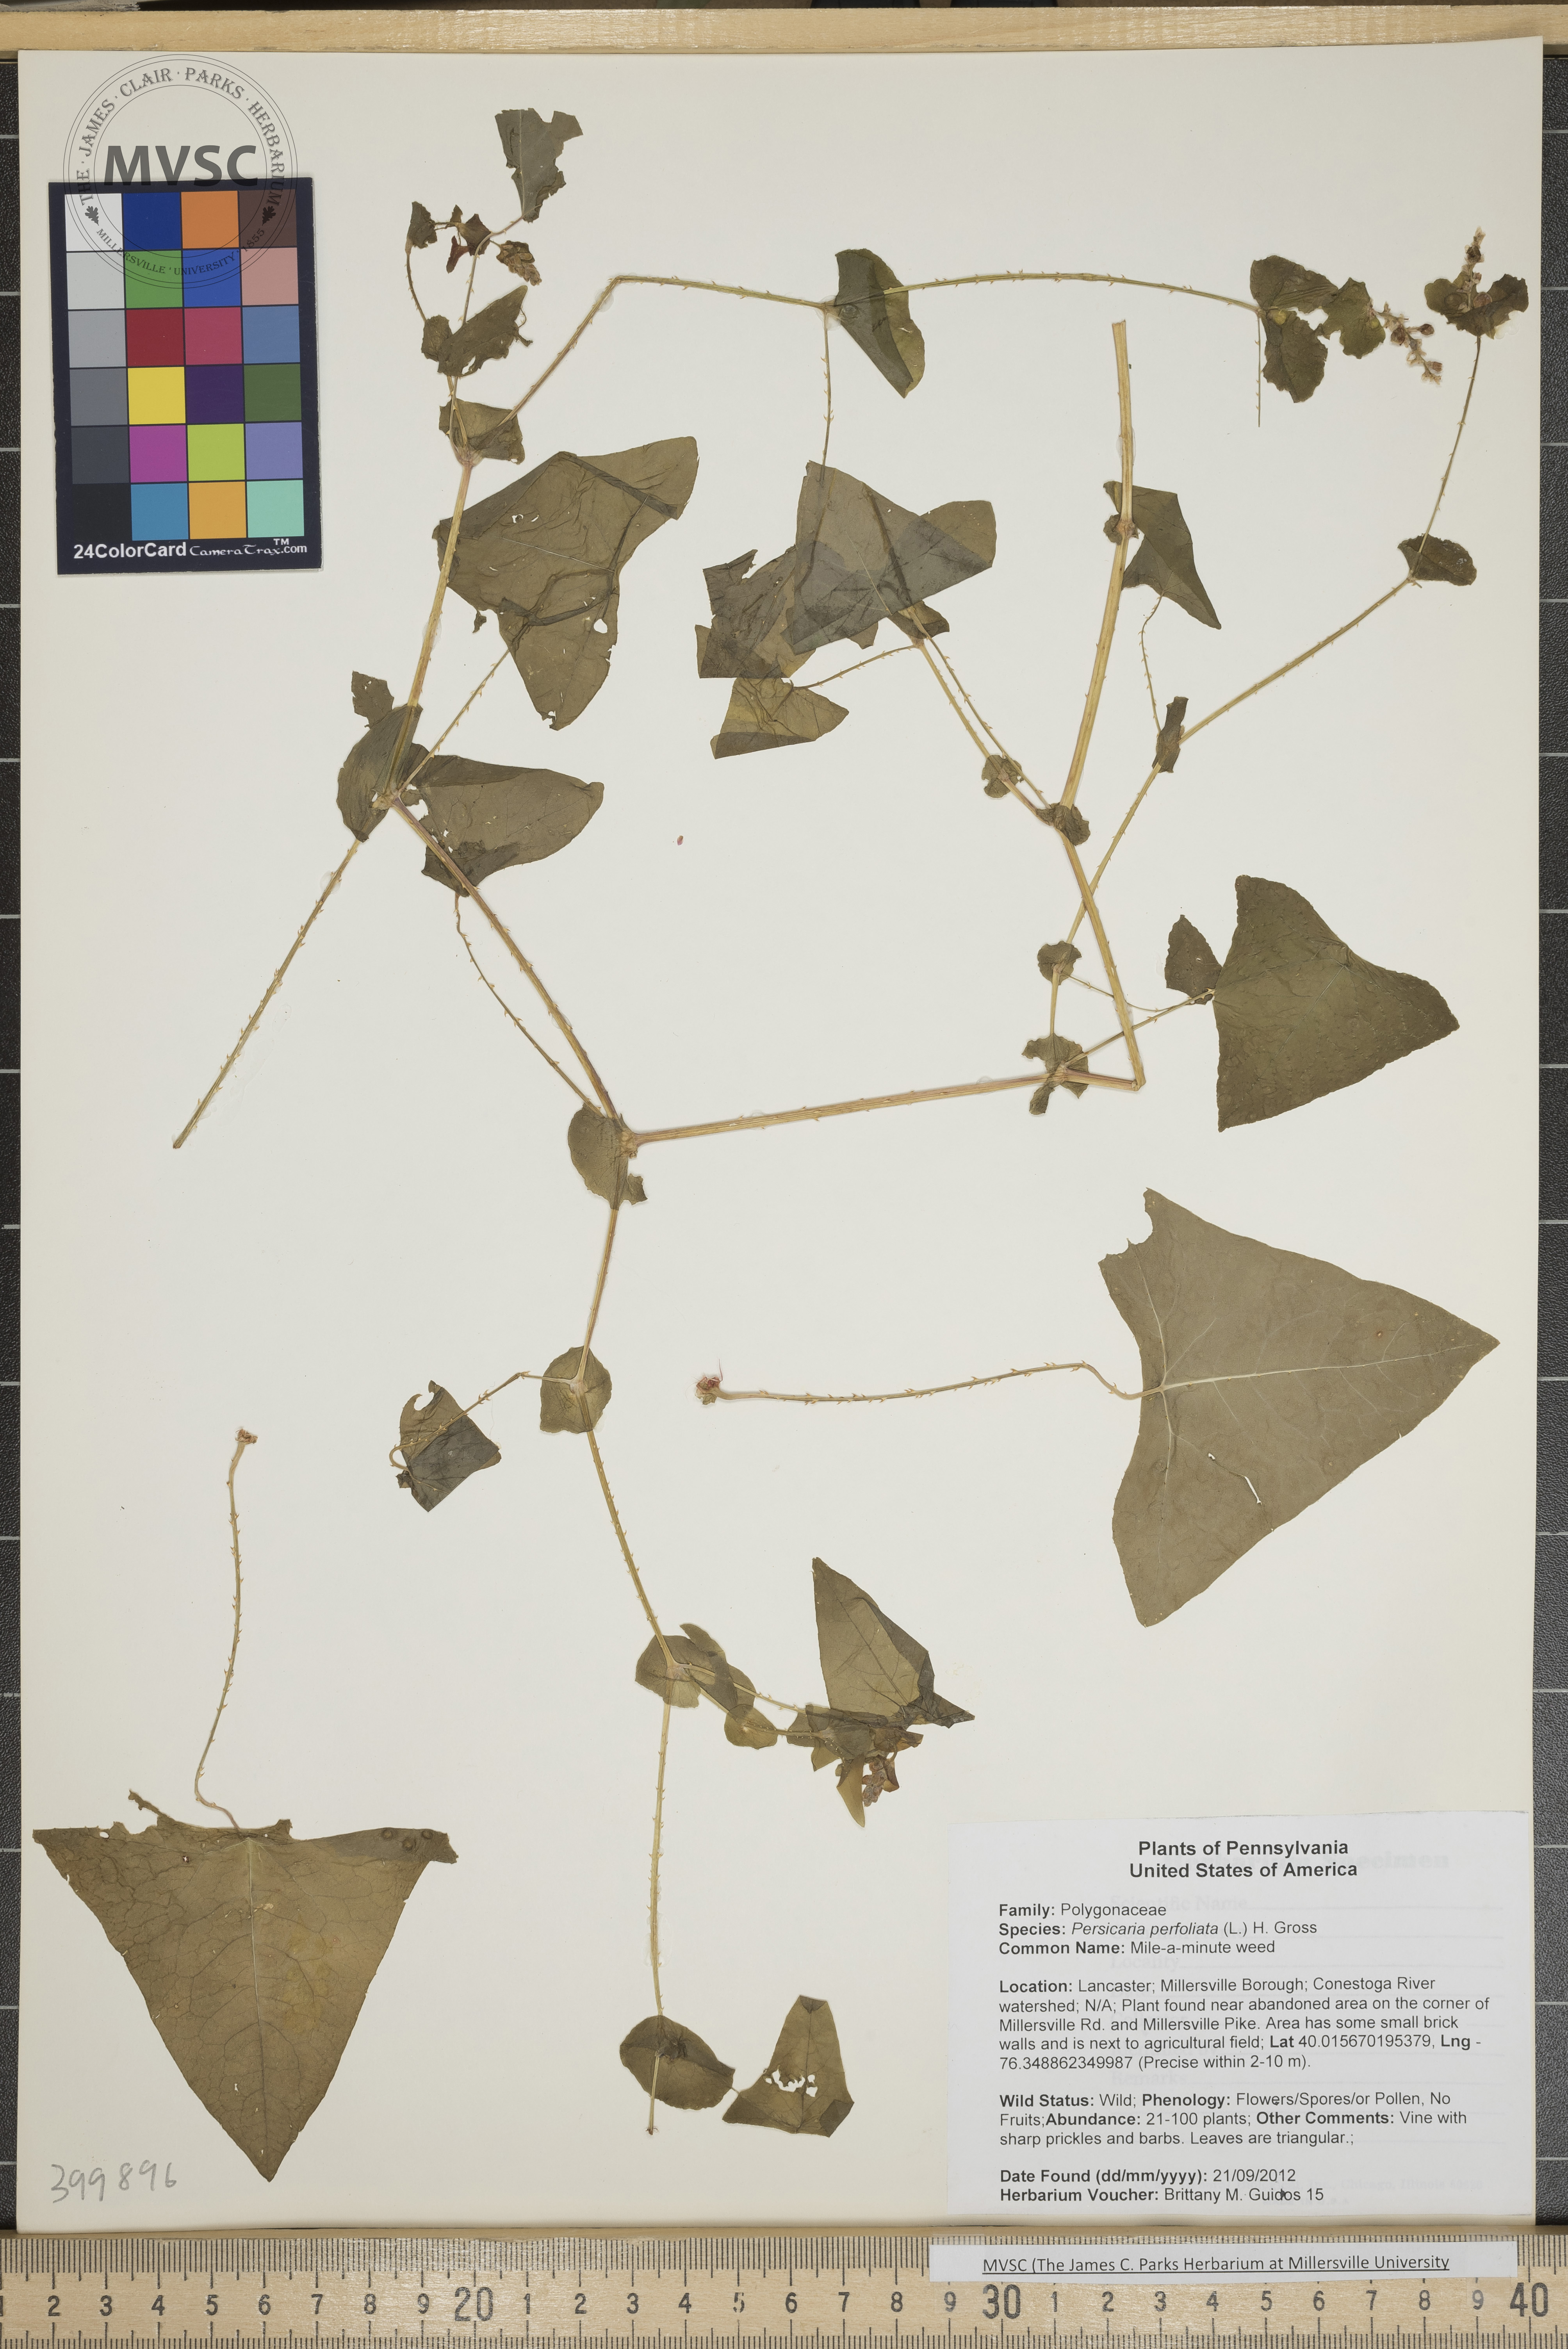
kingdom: Plantae
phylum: Tracheophyta
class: Magnoliopsida
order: Caryophyllales
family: Polygonaceae
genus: Persicaria
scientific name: Persicaria perfoliata
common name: Mile-a-minute weed
